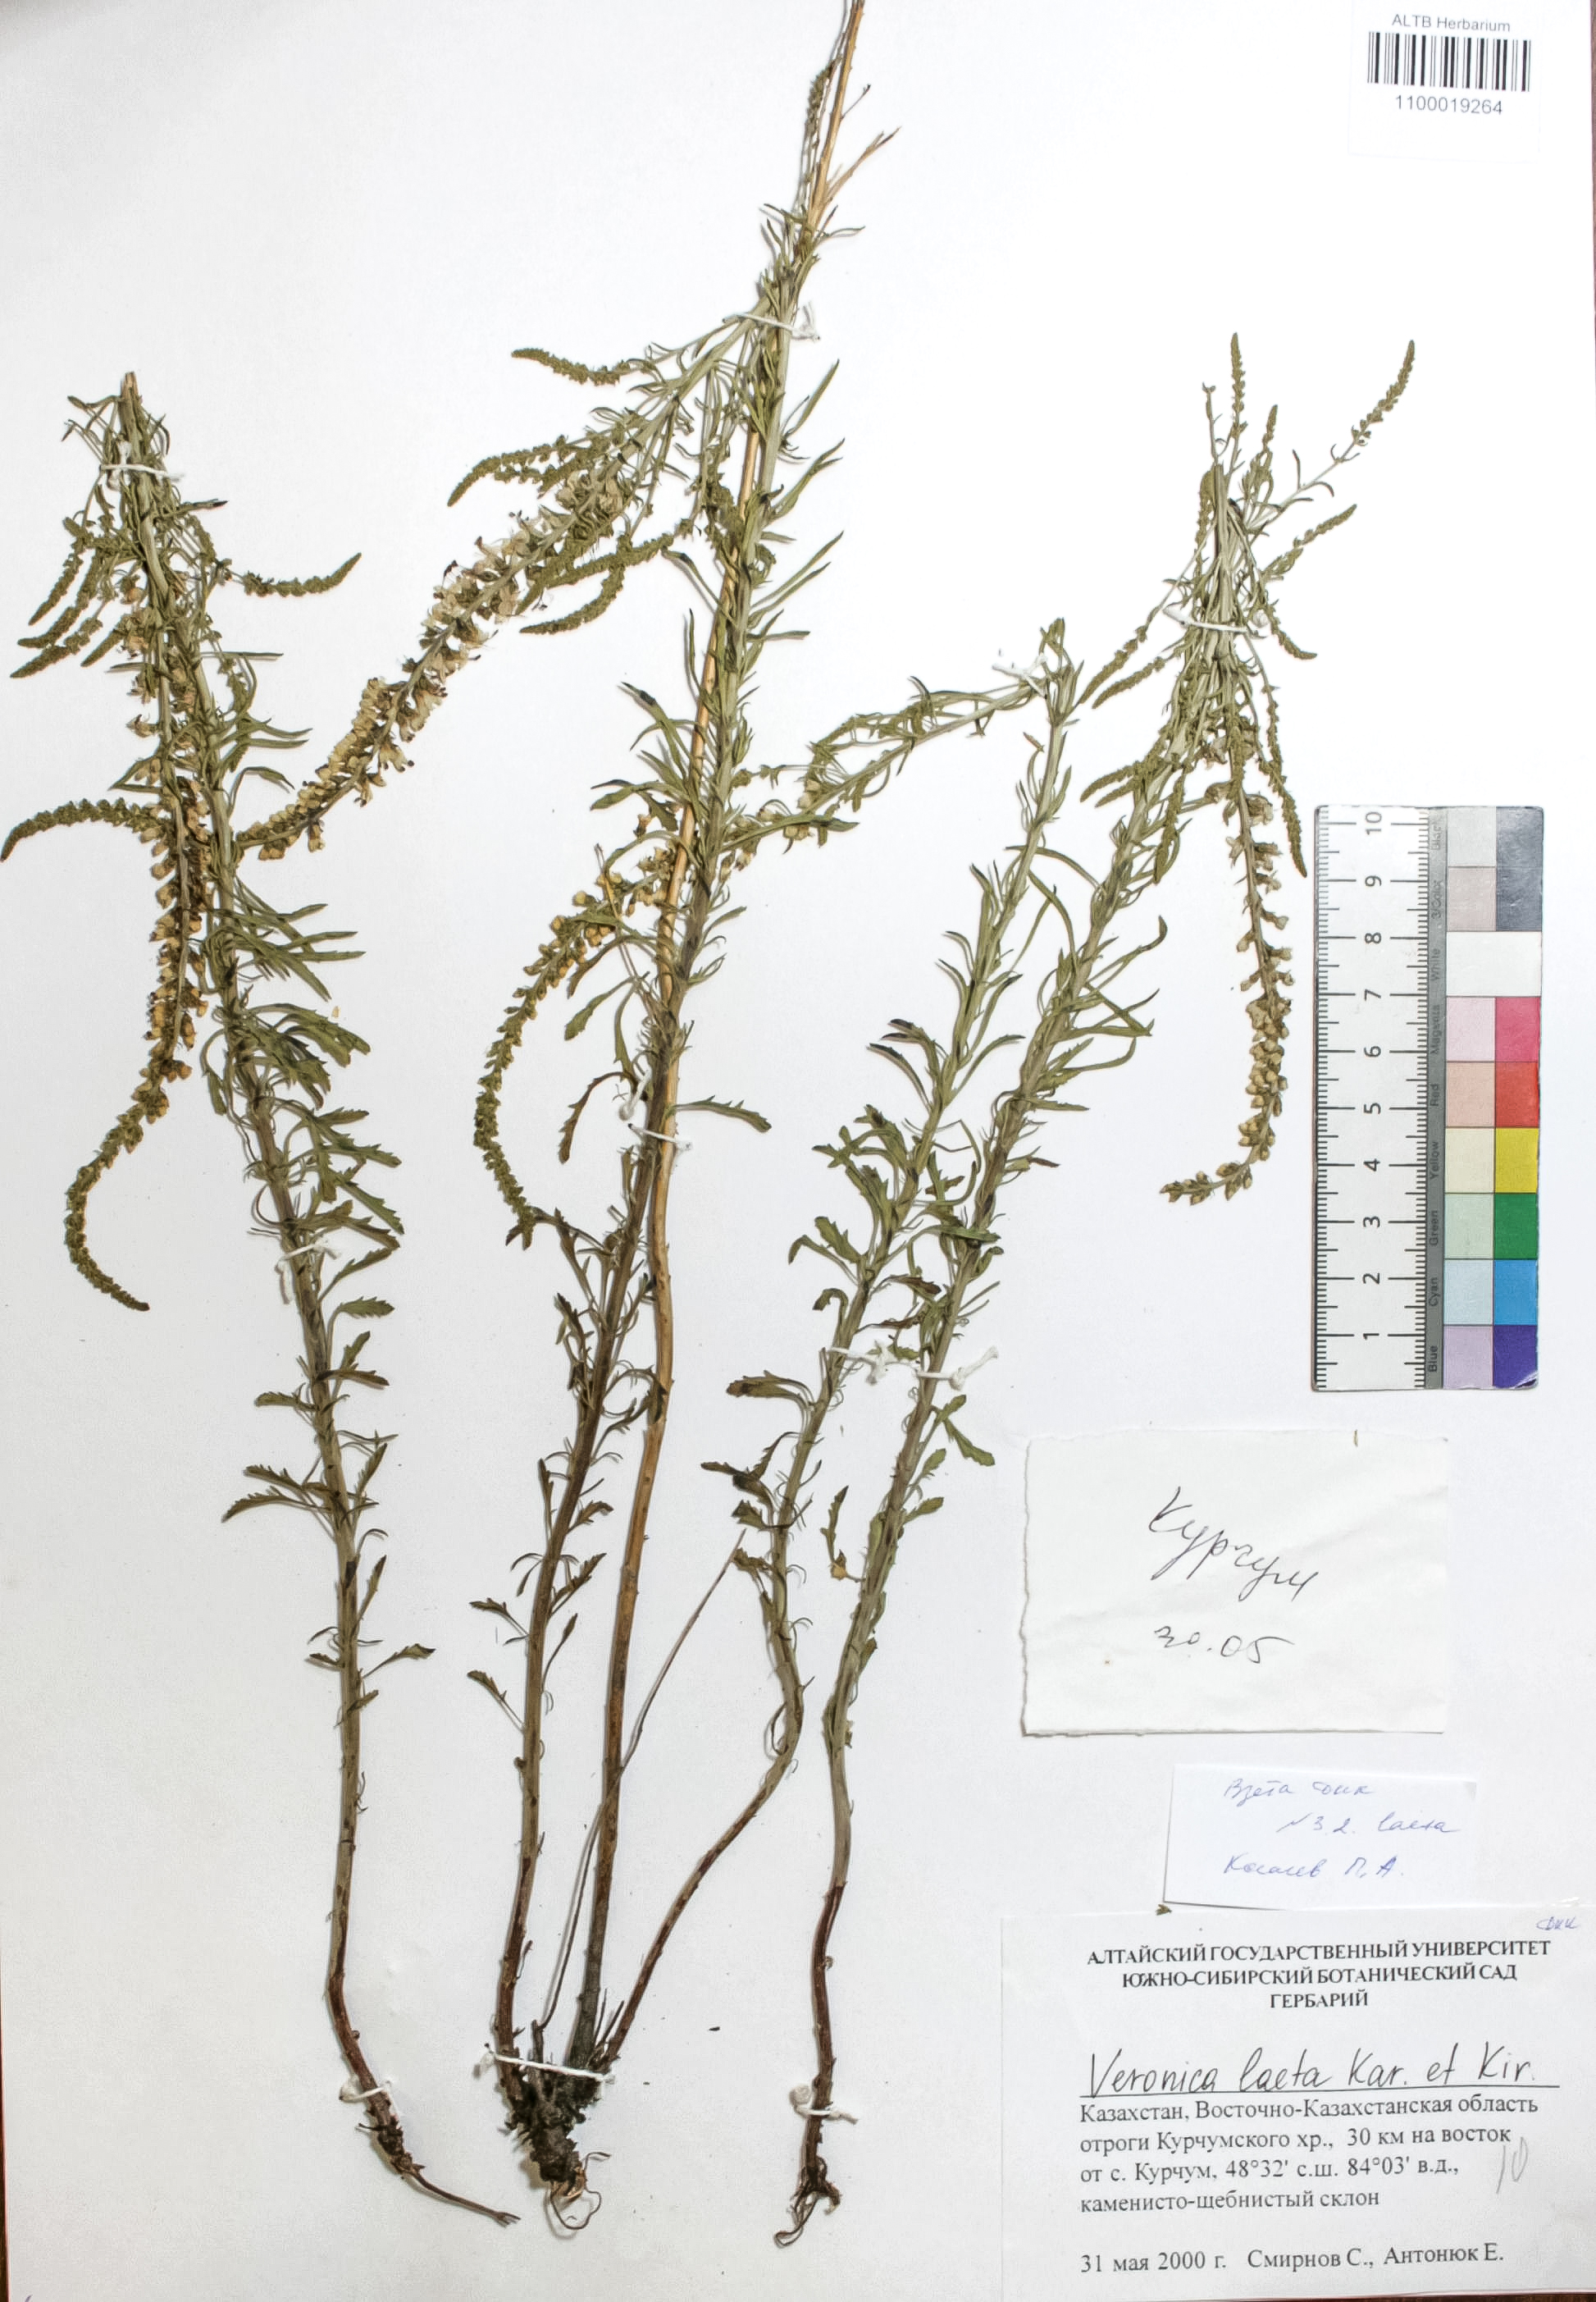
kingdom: Plantae
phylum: Tracheophyta
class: Magnoliopsida
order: Lamiales
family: Plantaginaceae
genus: Veronica
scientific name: Veronica laeta
